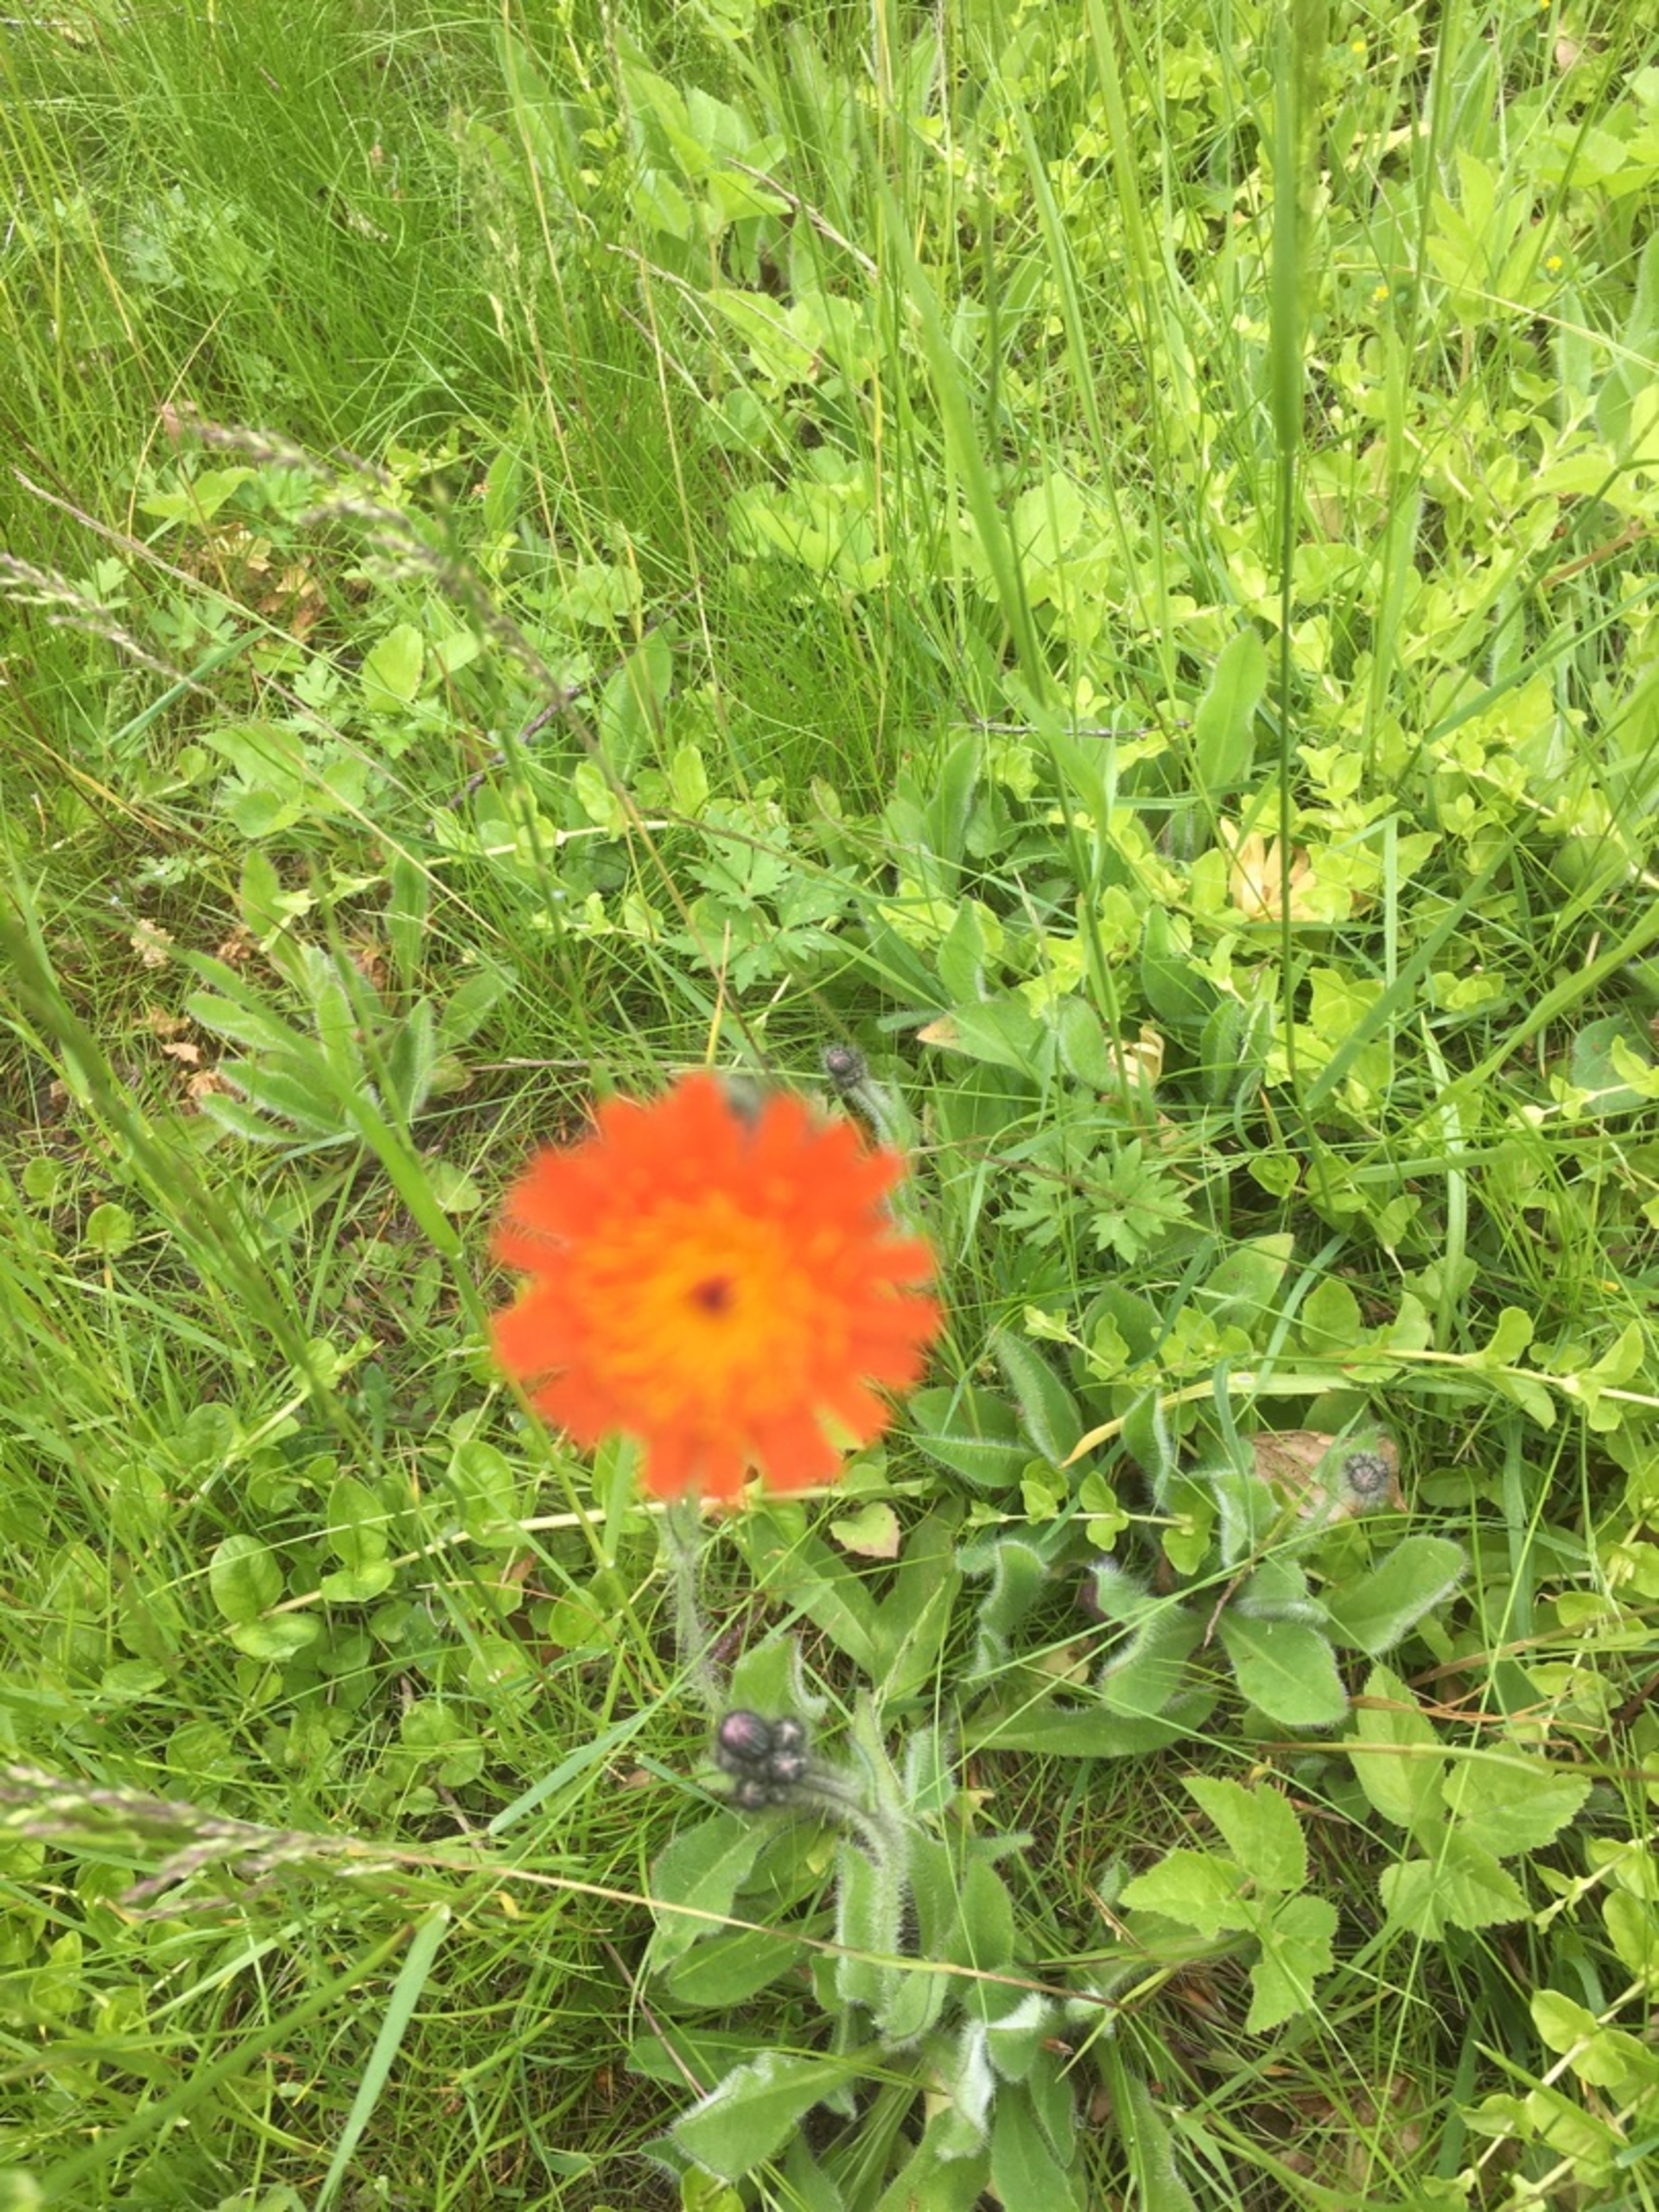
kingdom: Plantae
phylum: Tracheophyta
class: Magnoliopsida
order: Asterales
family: Asteraceae
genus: Pilosella
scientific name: Pilosella aurantiaca
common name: Pomerans-høgeurt
